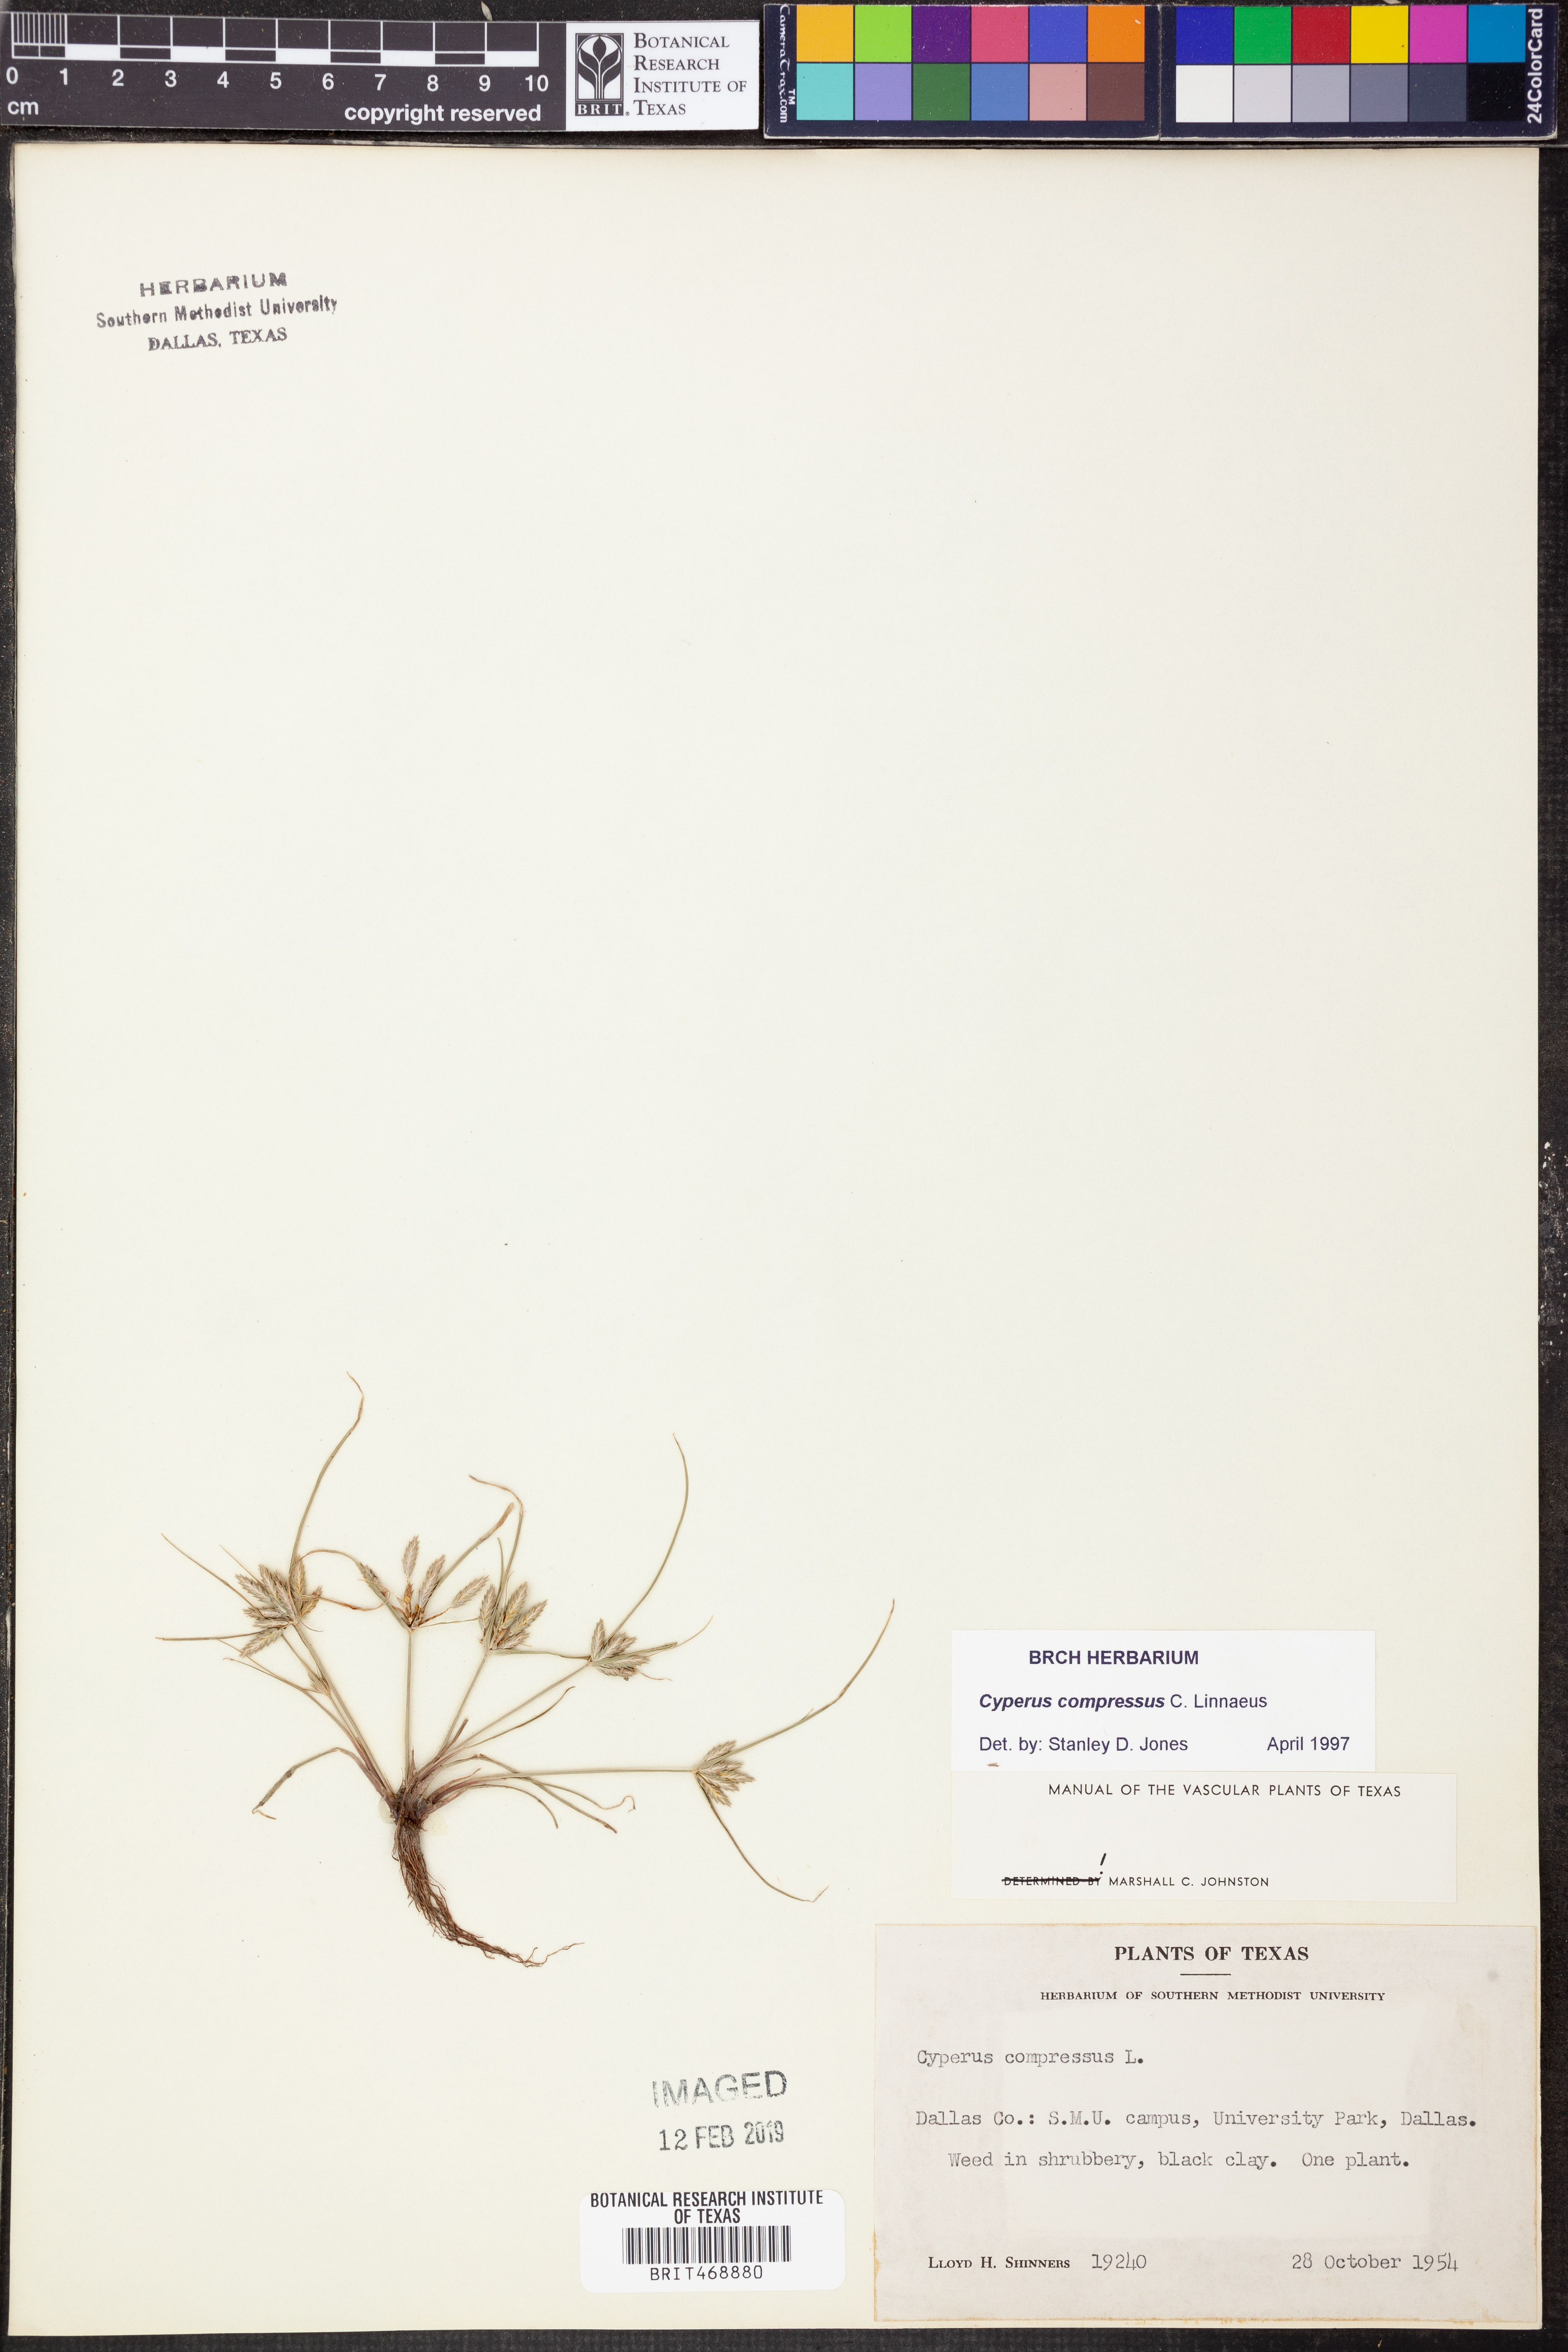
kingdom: Plantae
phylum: Tracheophyta
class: Liliopsida
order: Poales
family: Cyperaceae
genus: Cyperus
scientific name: Cyperus compressus
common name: Poorland flatsedge
